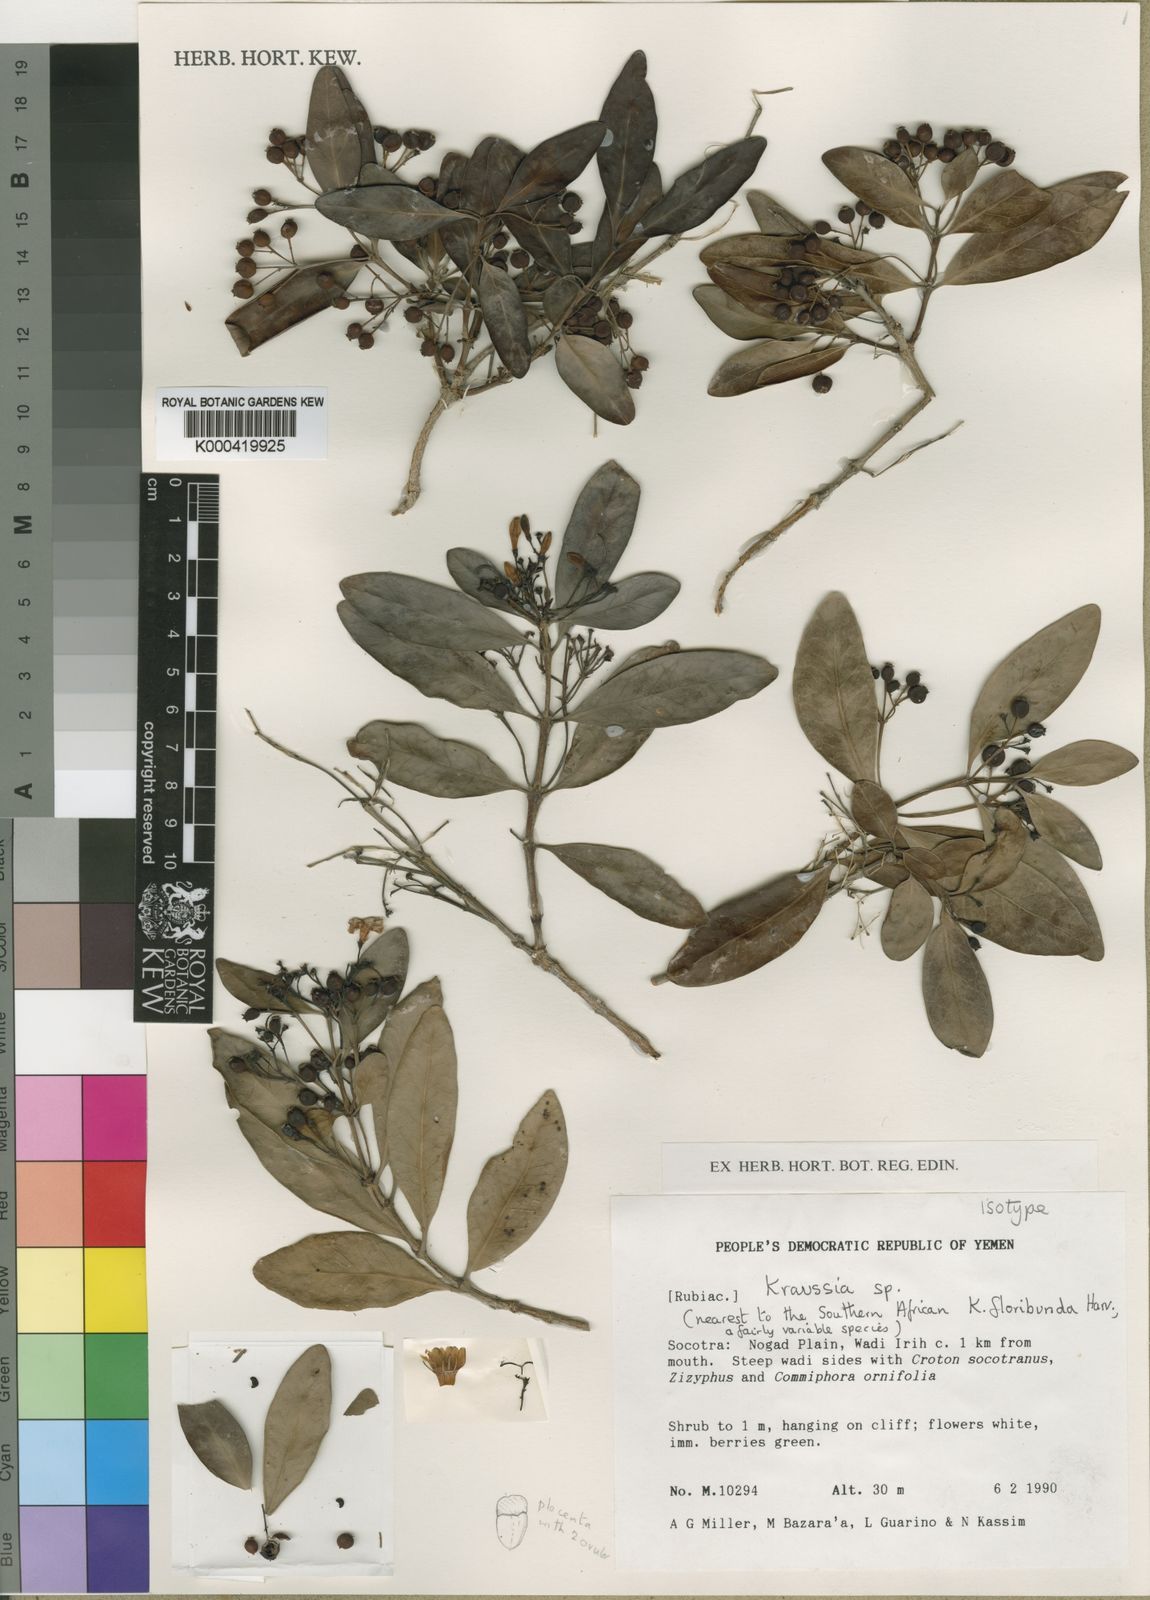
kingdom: Plantae
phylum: Tracheophyta
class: Magnoliopsida
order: Gentianales
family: Rubiaceae
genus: Kraussia
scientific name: Kraussia socotrana
